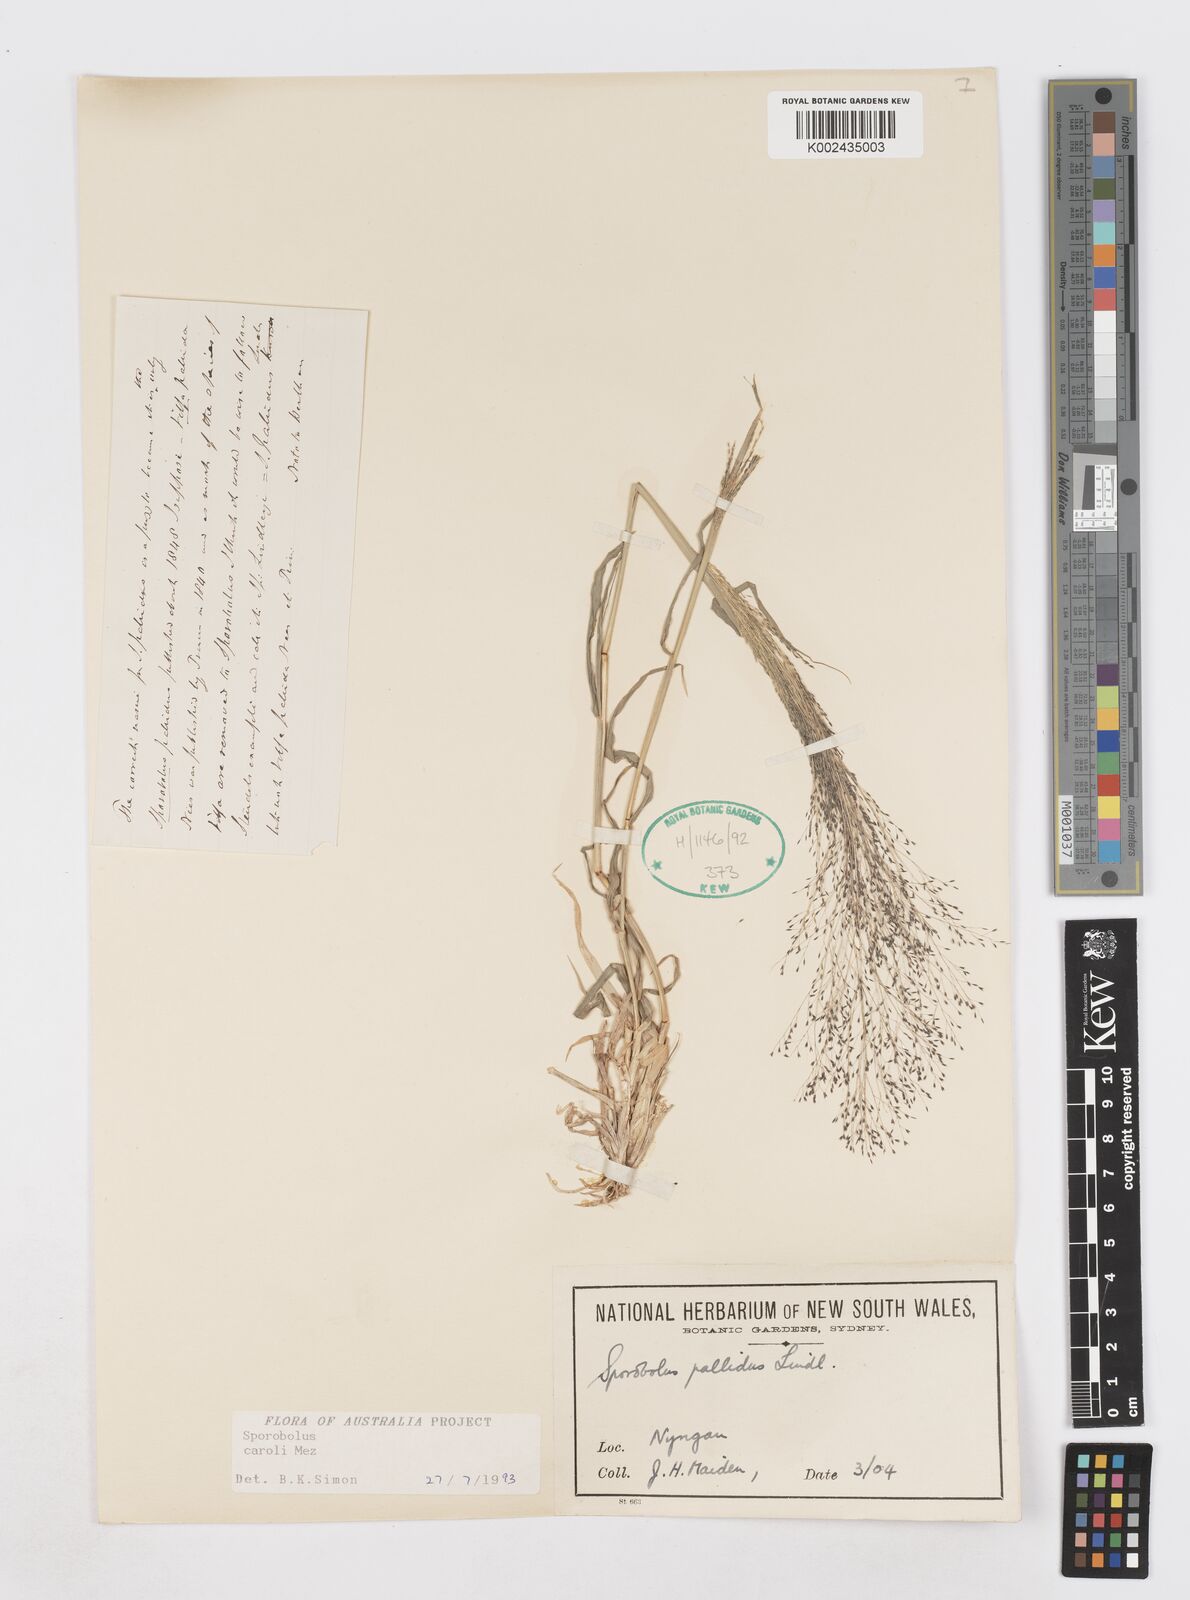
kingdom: Plantae
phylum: Tracheophyta
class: Liliopsida
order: Poales
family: Poaceae
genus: Sporobolus
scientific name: Sporobolus caroli
